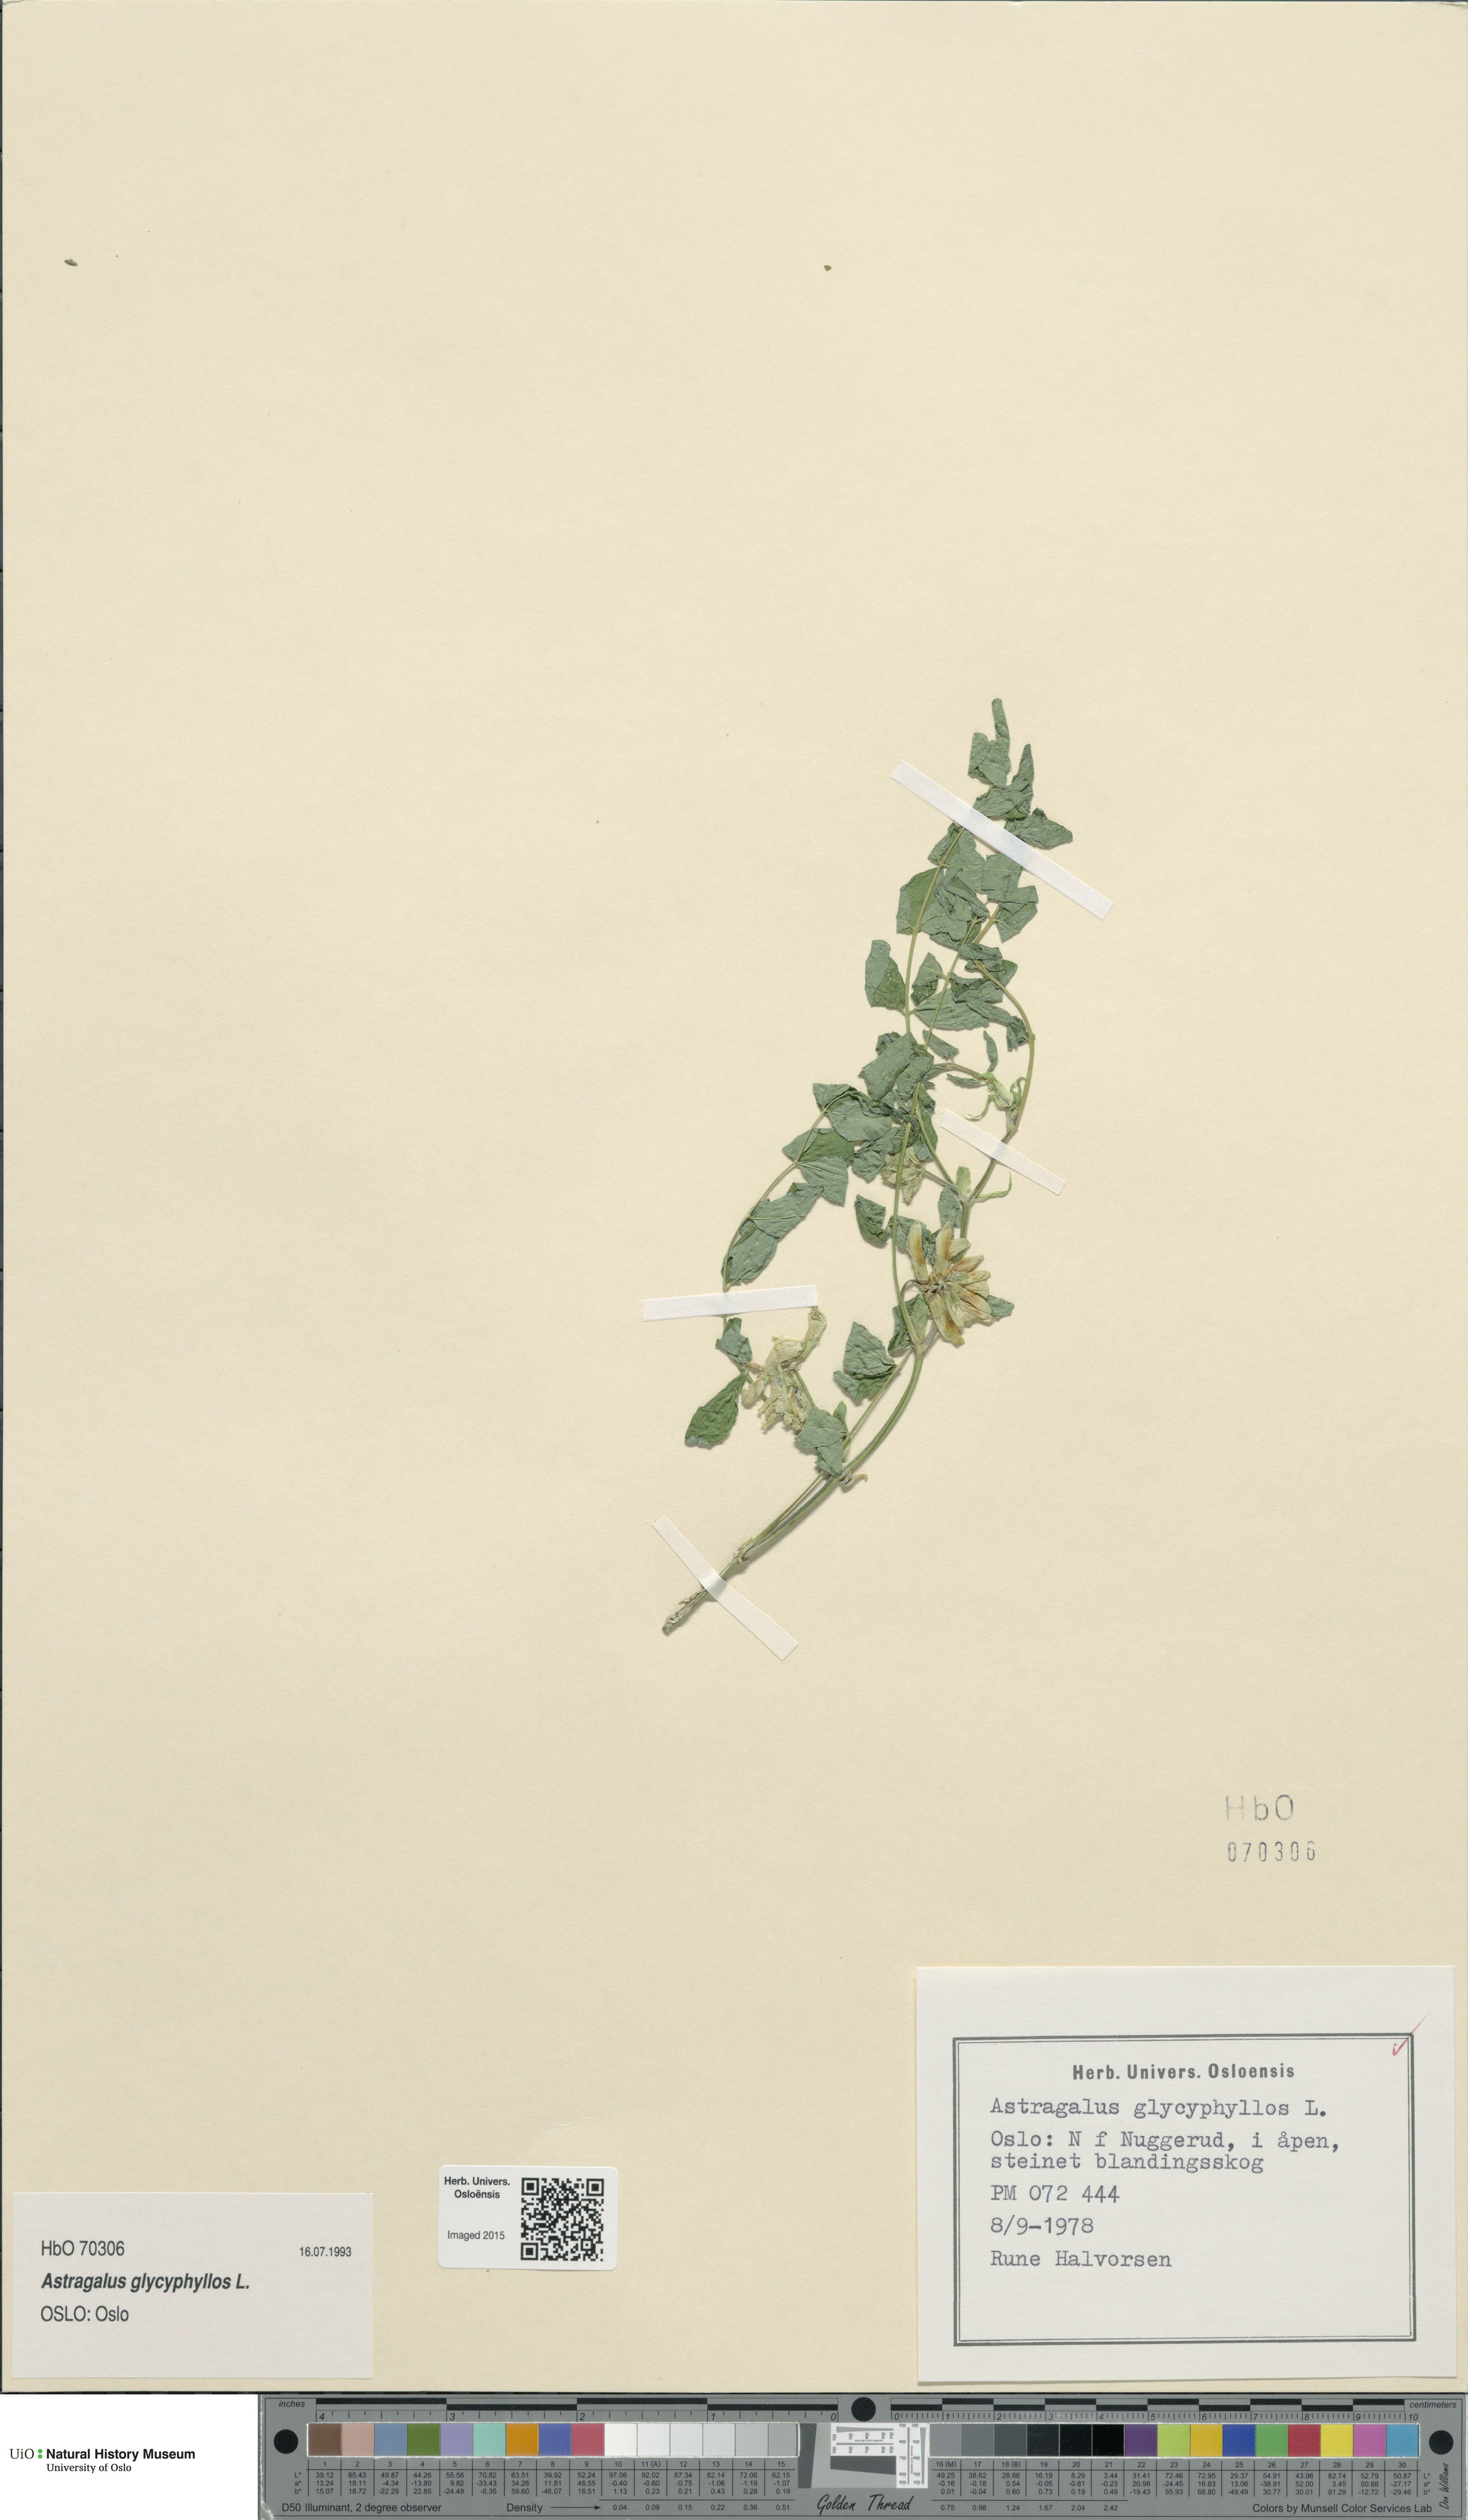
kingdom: Plantae
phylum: Tracheophyta
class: Magnoliopsida
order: Fabales
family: Fabaceae
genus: Astragalus
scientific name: Astragalus glycyphyllos
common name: Wild liquorice
